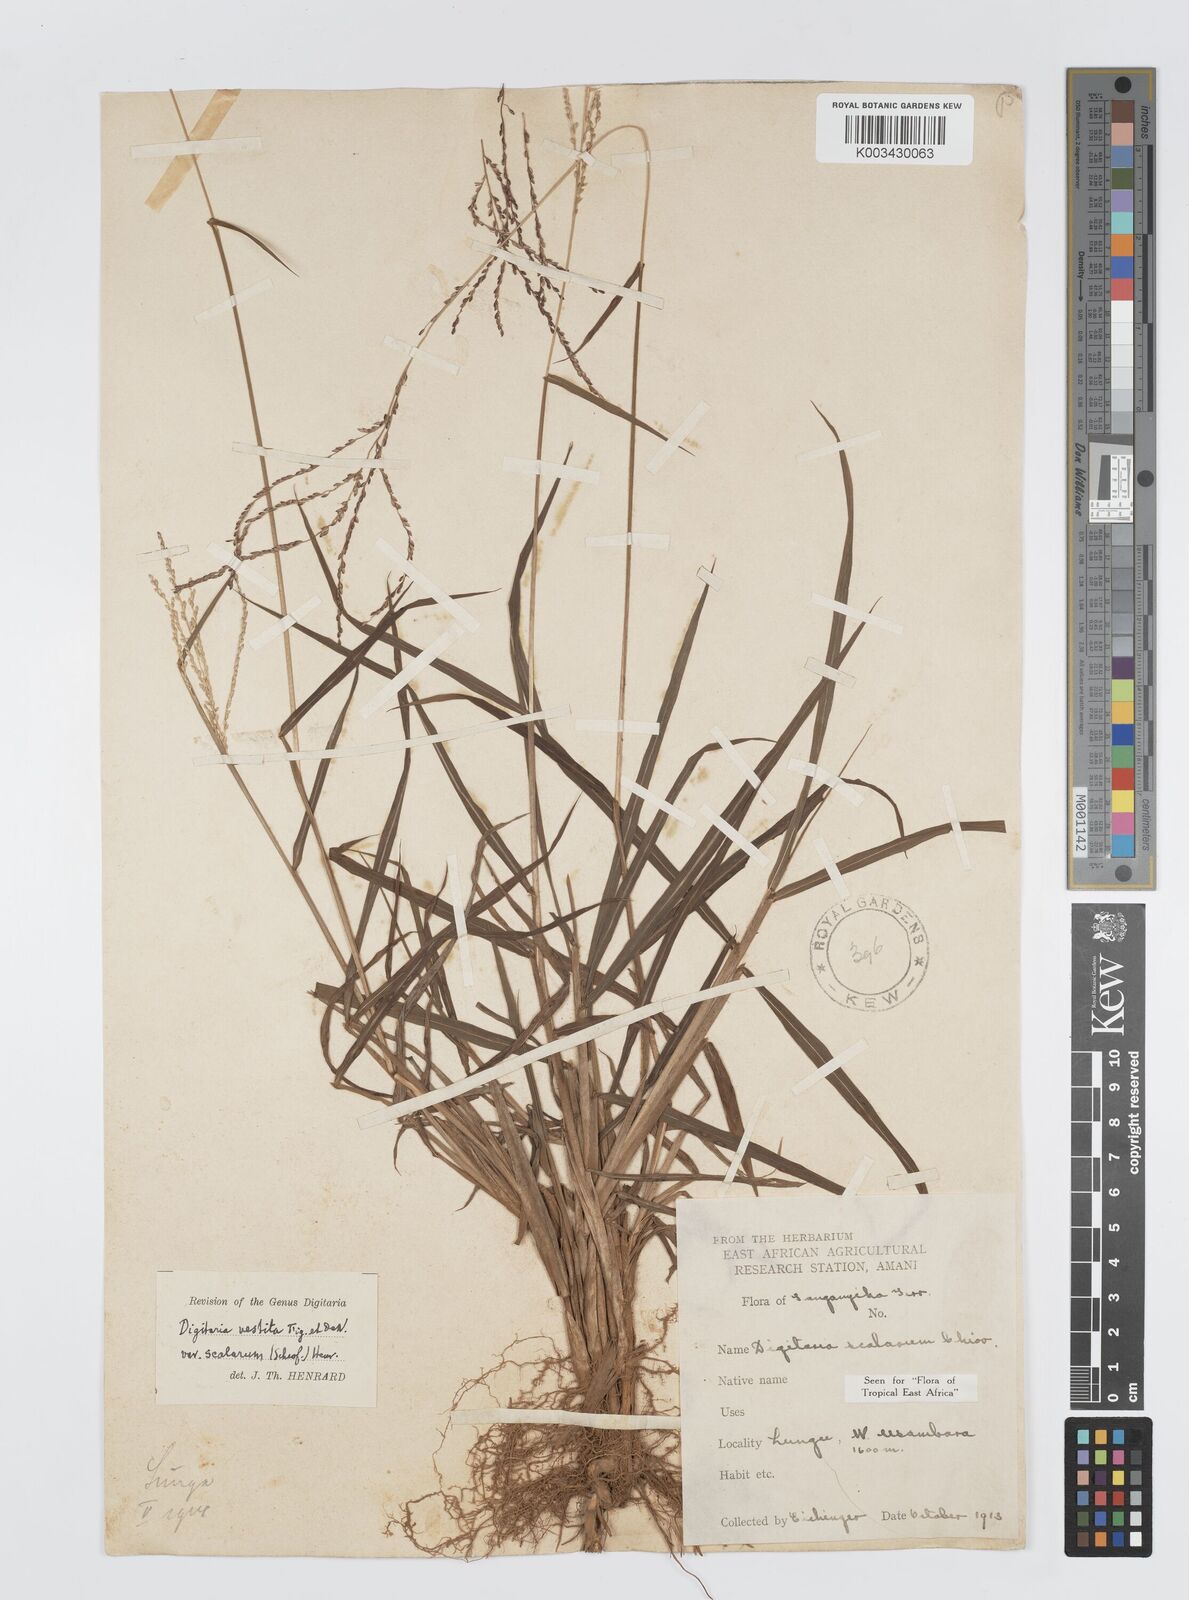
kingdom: Plantae
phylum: Tracheophyta
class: Liliopsida
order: Poales
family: Poaceae
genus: Digitaria
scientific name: Digitaria abyssinica
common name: African couchgrass
